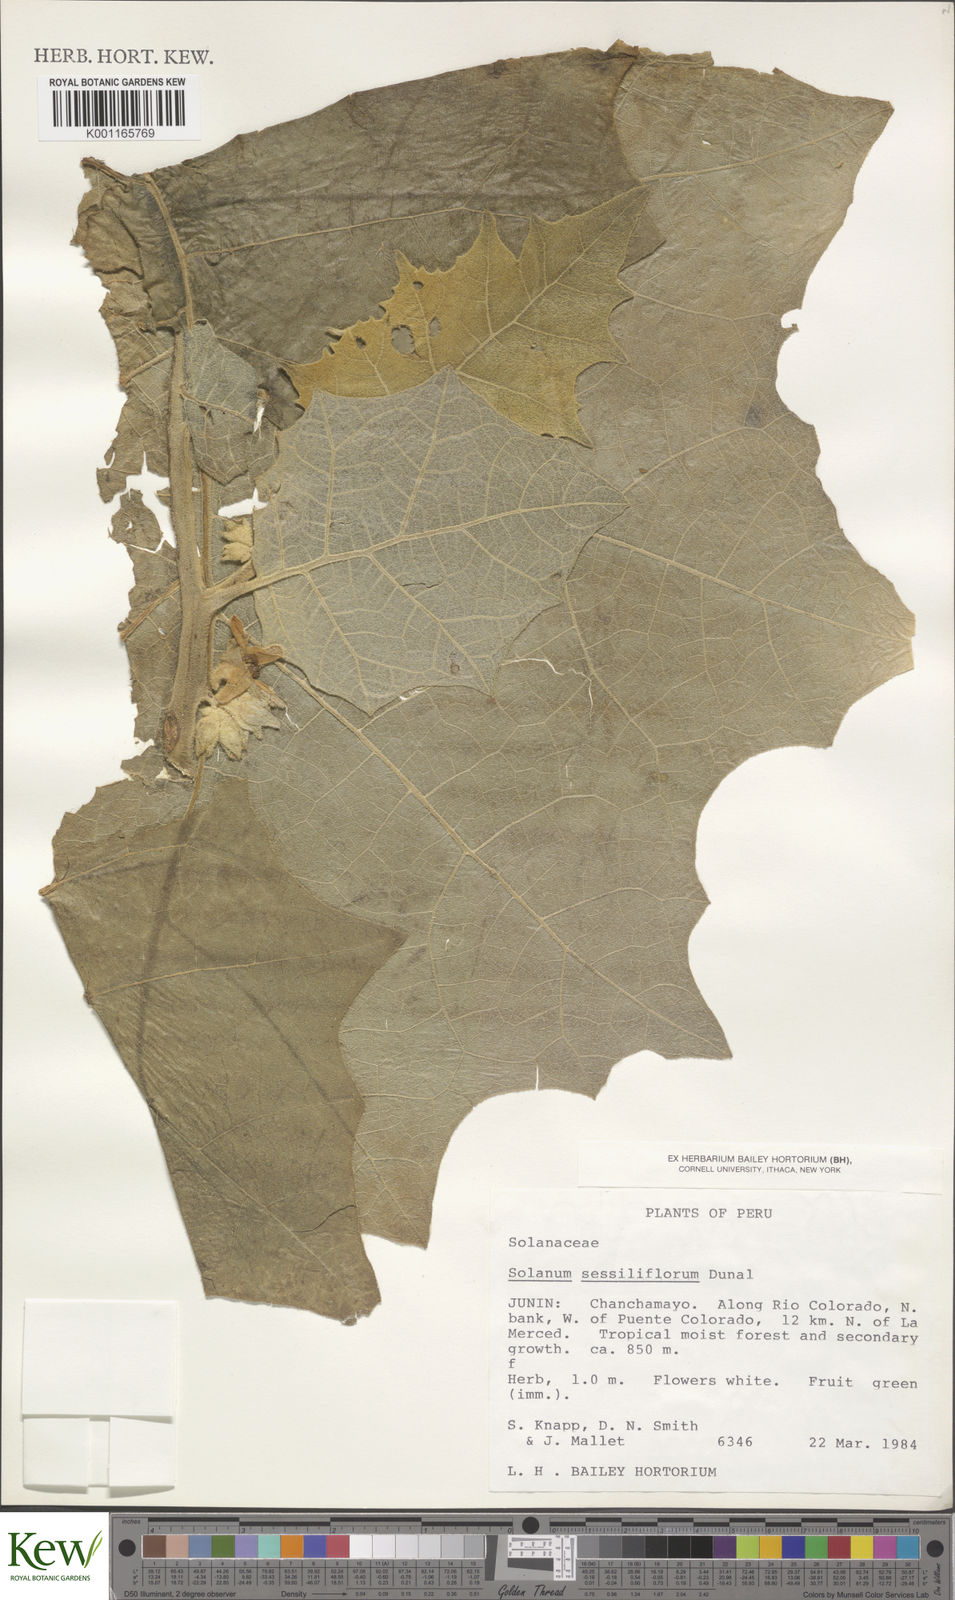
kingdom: Plantae
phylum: Tracheophyta
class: Magnoliopsida
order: Solanales
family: Solanaceae
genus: Solanum
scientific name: Solanum sessiliflorum
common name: Orinoco-apple
